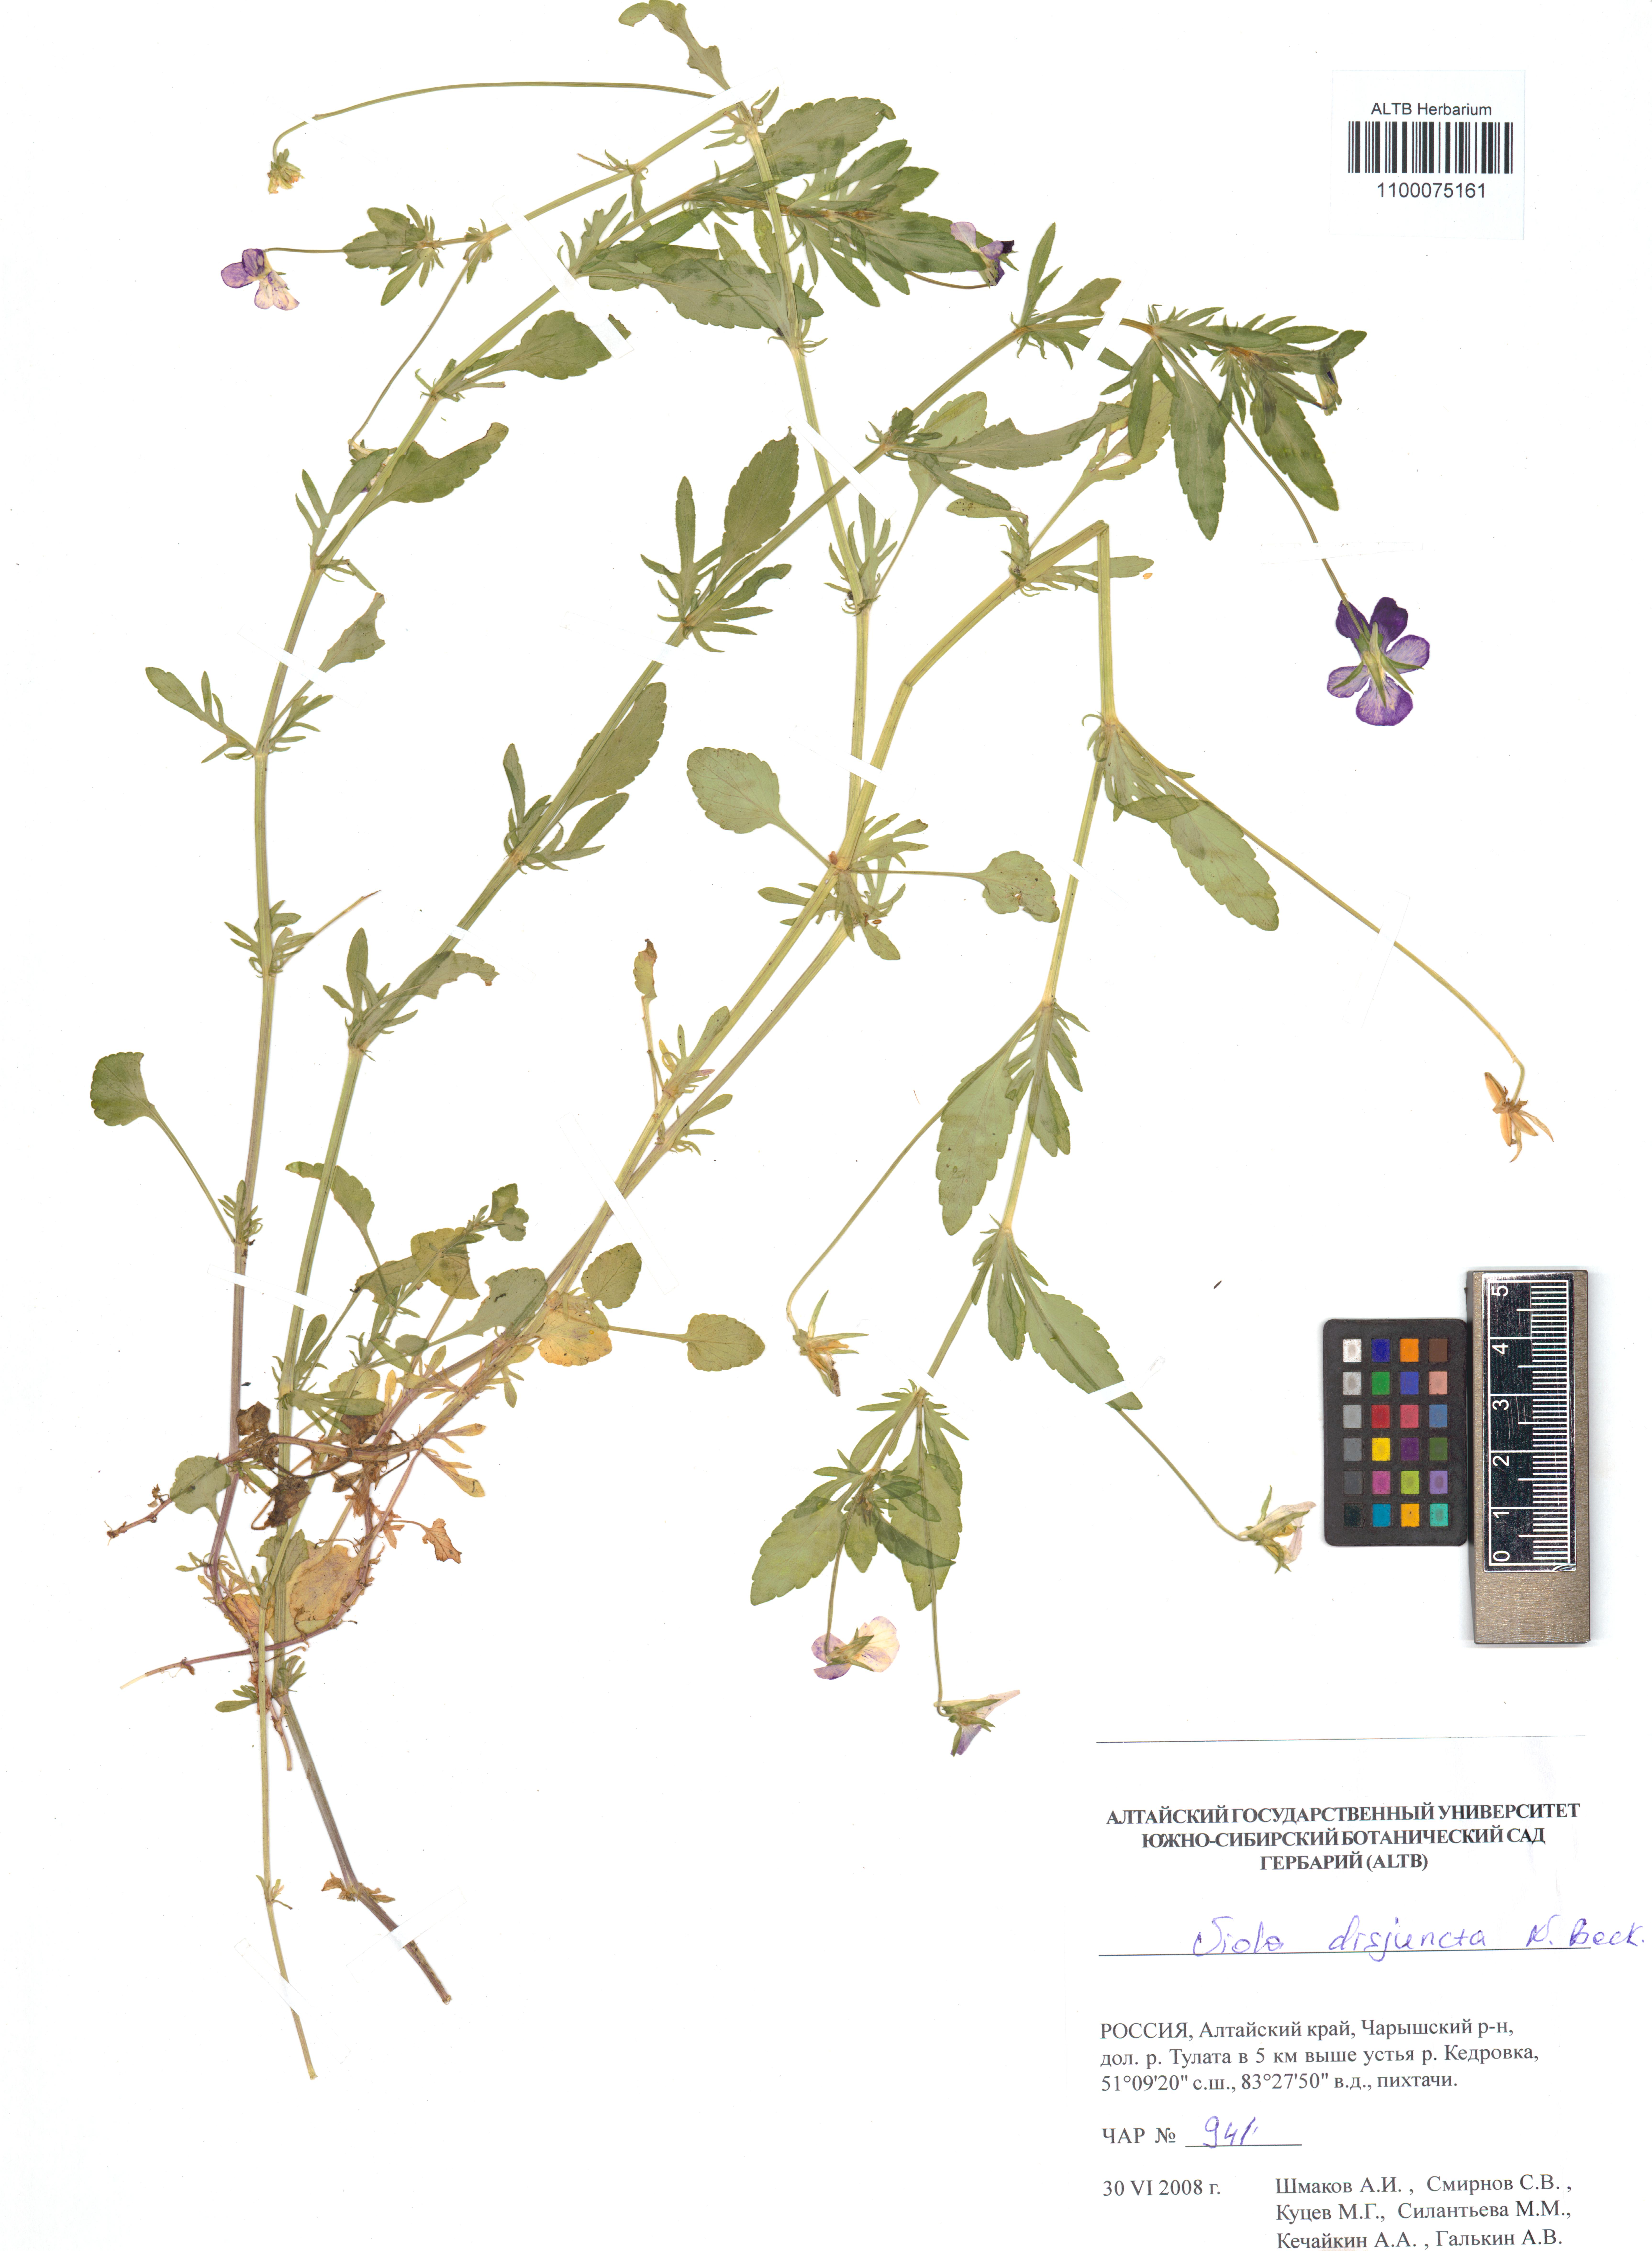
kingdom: Plantae
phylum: Tracheophyta
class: Magnoliopsida
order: Malpighiales
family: Violaceae
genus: Viola
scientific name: Viola tricolor
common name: Pansy
